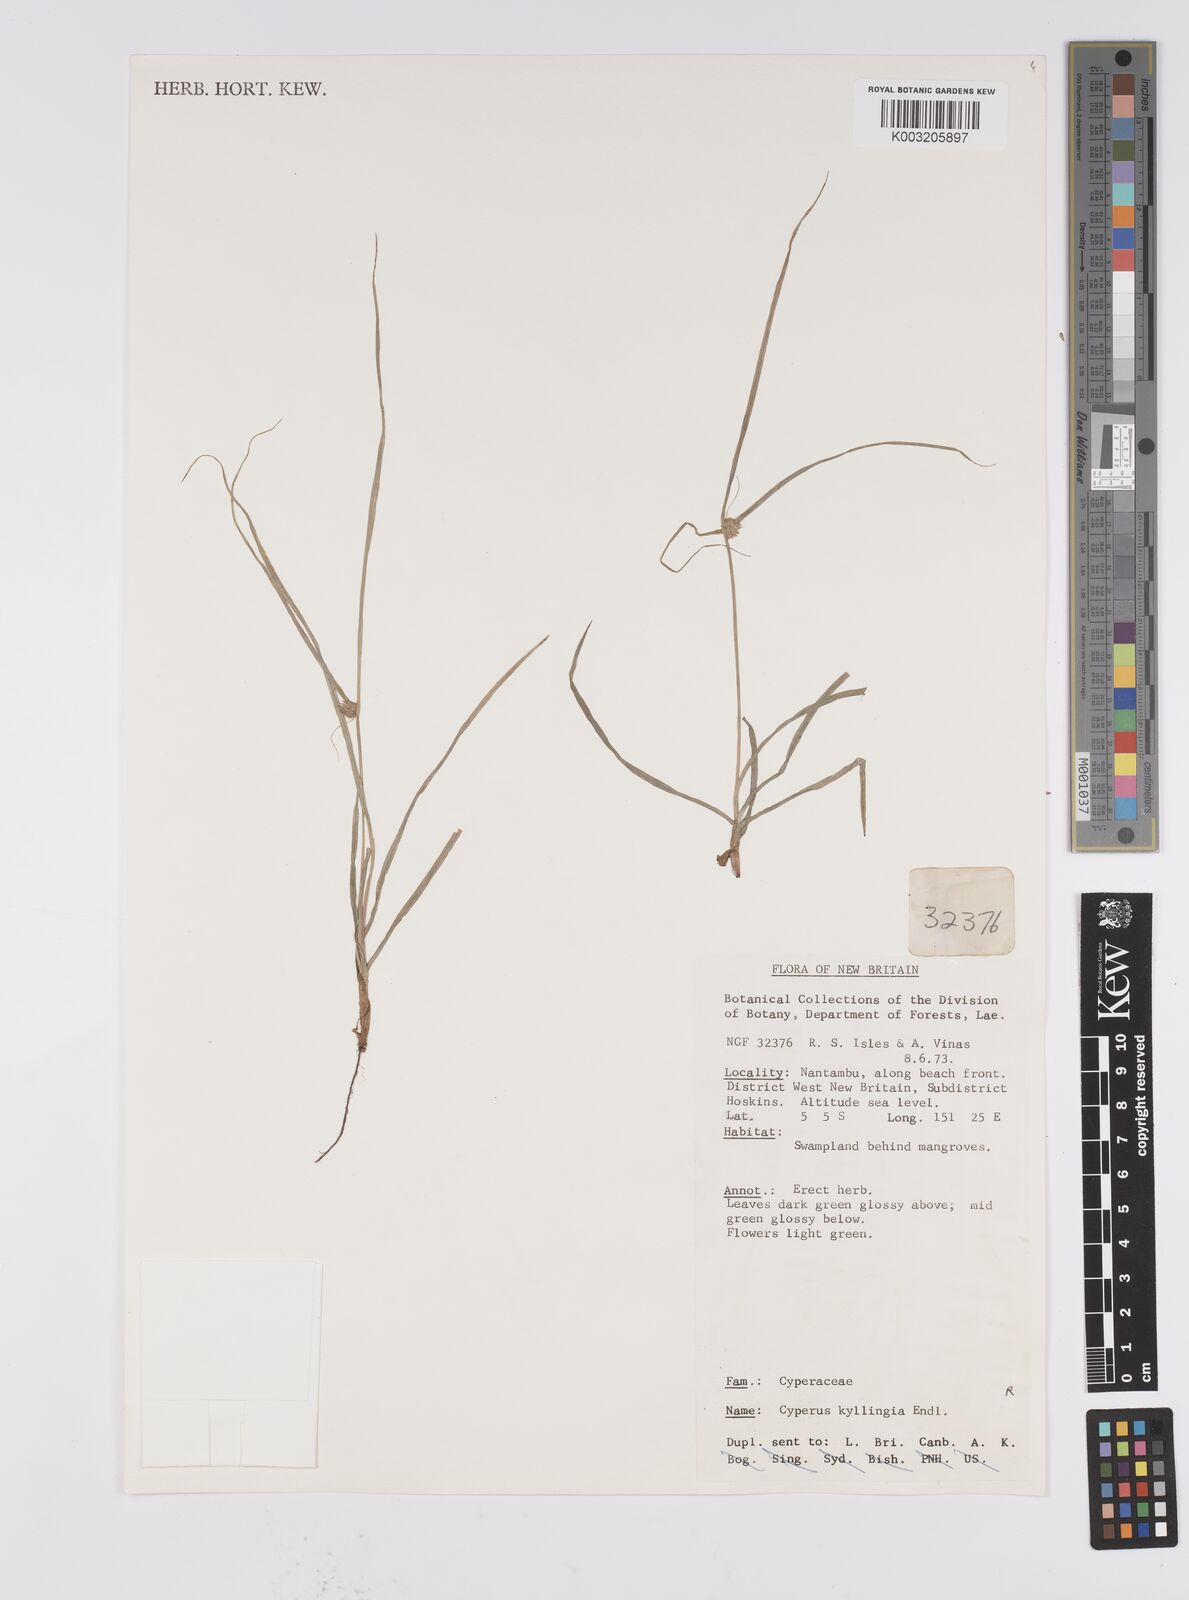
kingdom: Plantae
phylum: Tracheophyta
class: Liliopsida
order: Poales
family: Cyperaceae
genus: Cyperus
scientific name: Cyperus nemoralis
